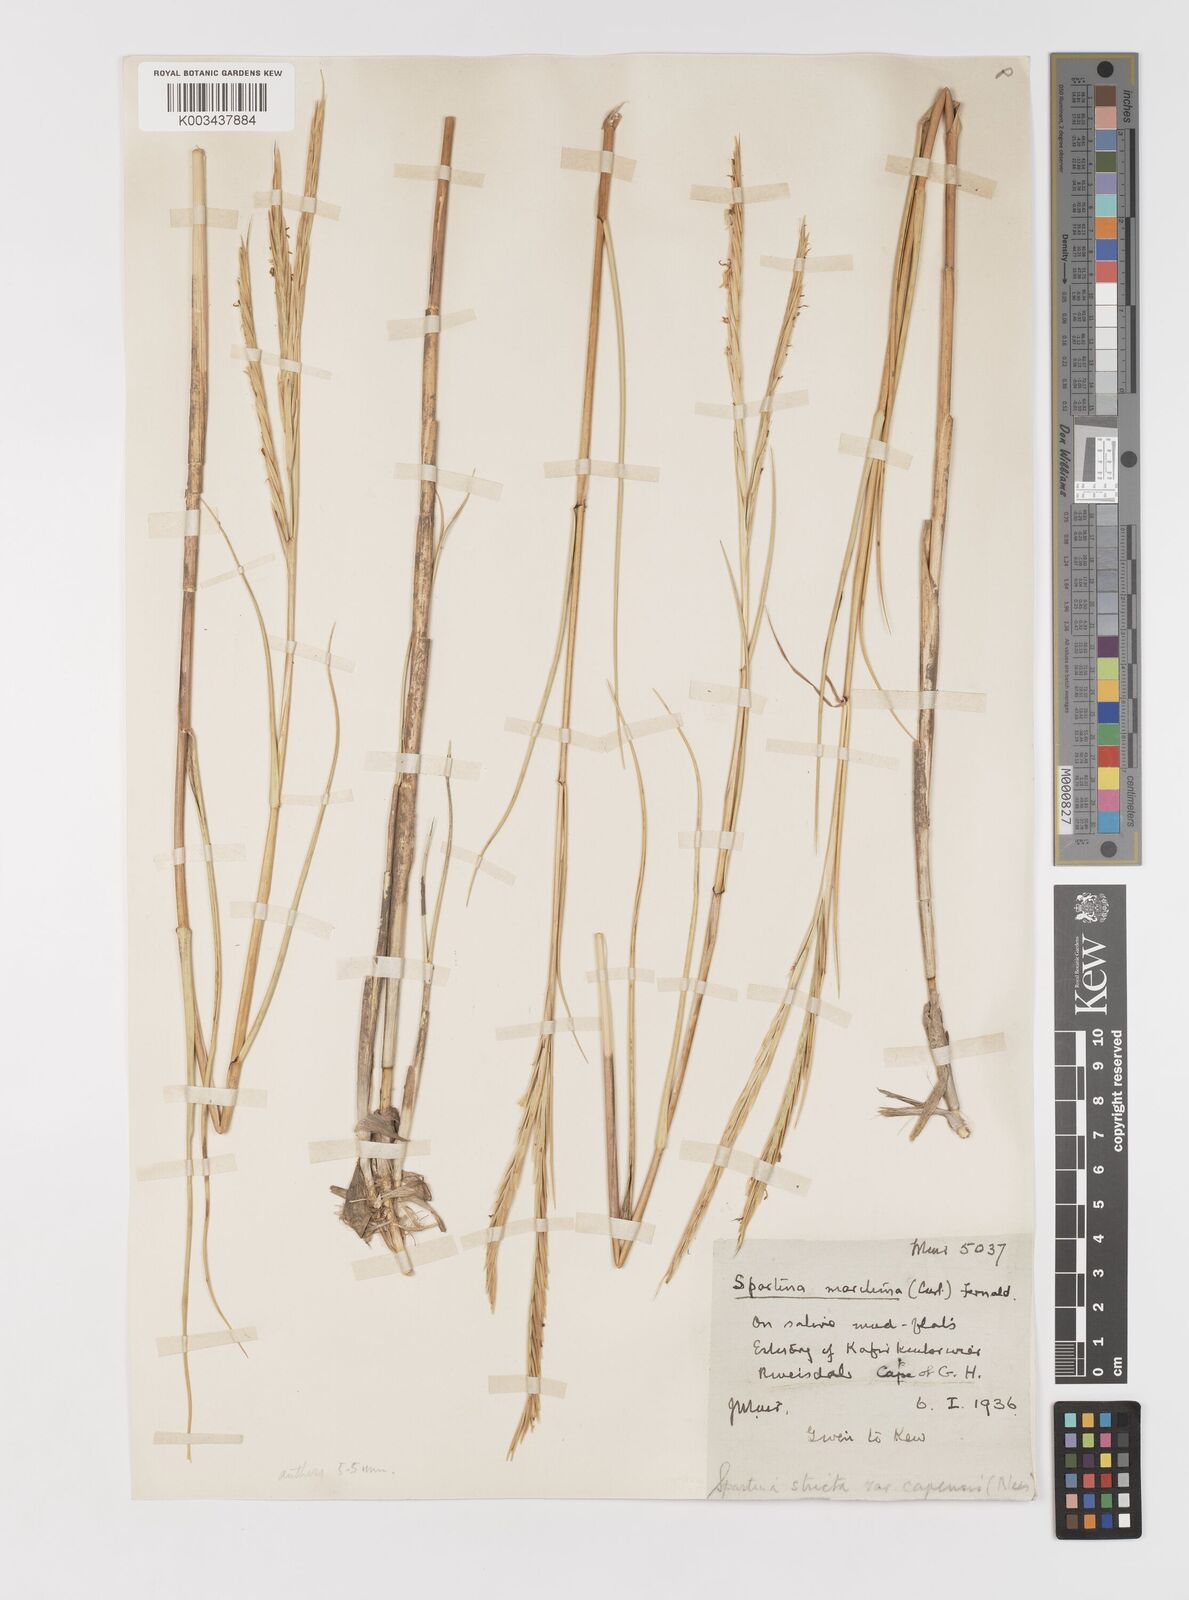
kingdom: Plantae
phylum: Tracheophyta
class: Liliopsida
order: Poales
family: Poaceae
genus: Sporobolus
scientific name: Sporobolus maritimus
